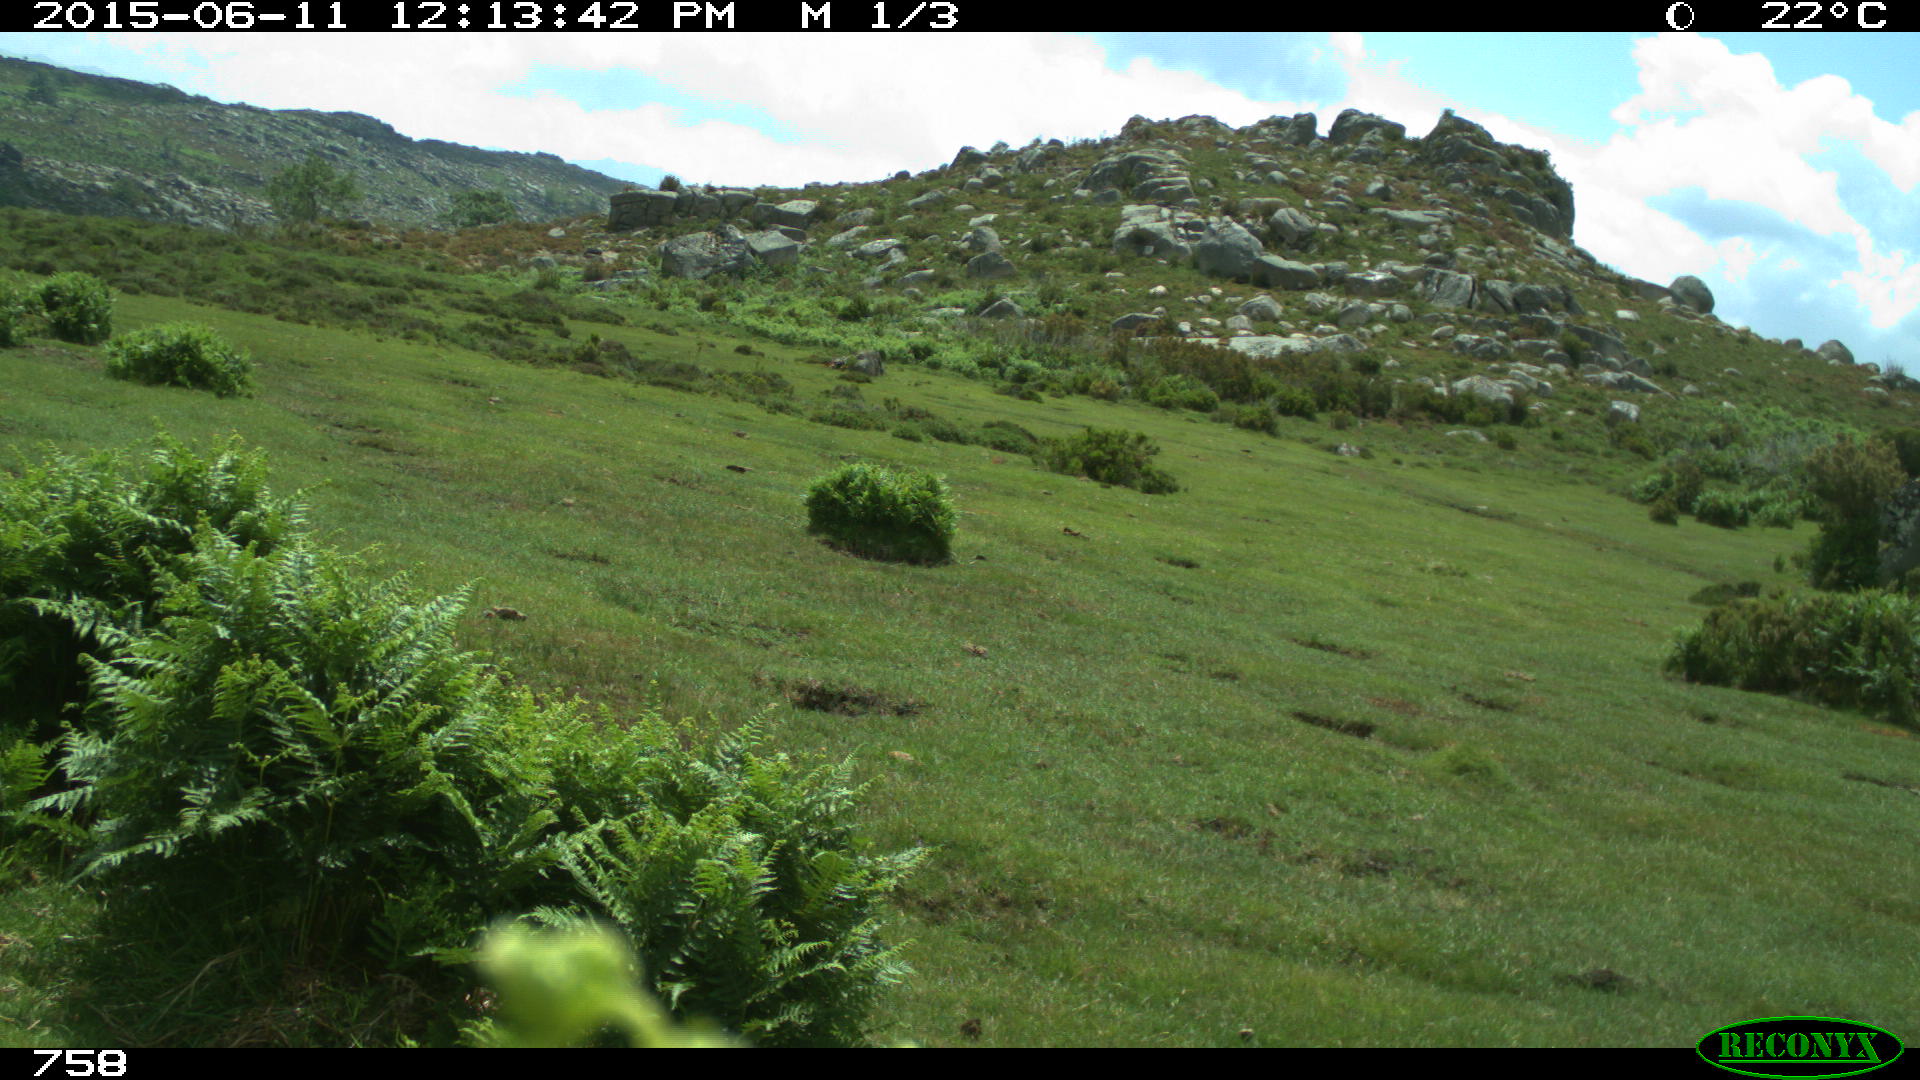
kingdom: Animalia
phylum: Chordata
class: Mammalia
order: Artiodactyla
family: Bovidae
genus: Bos
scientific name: Bos taurus
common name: Domesticated cattle
